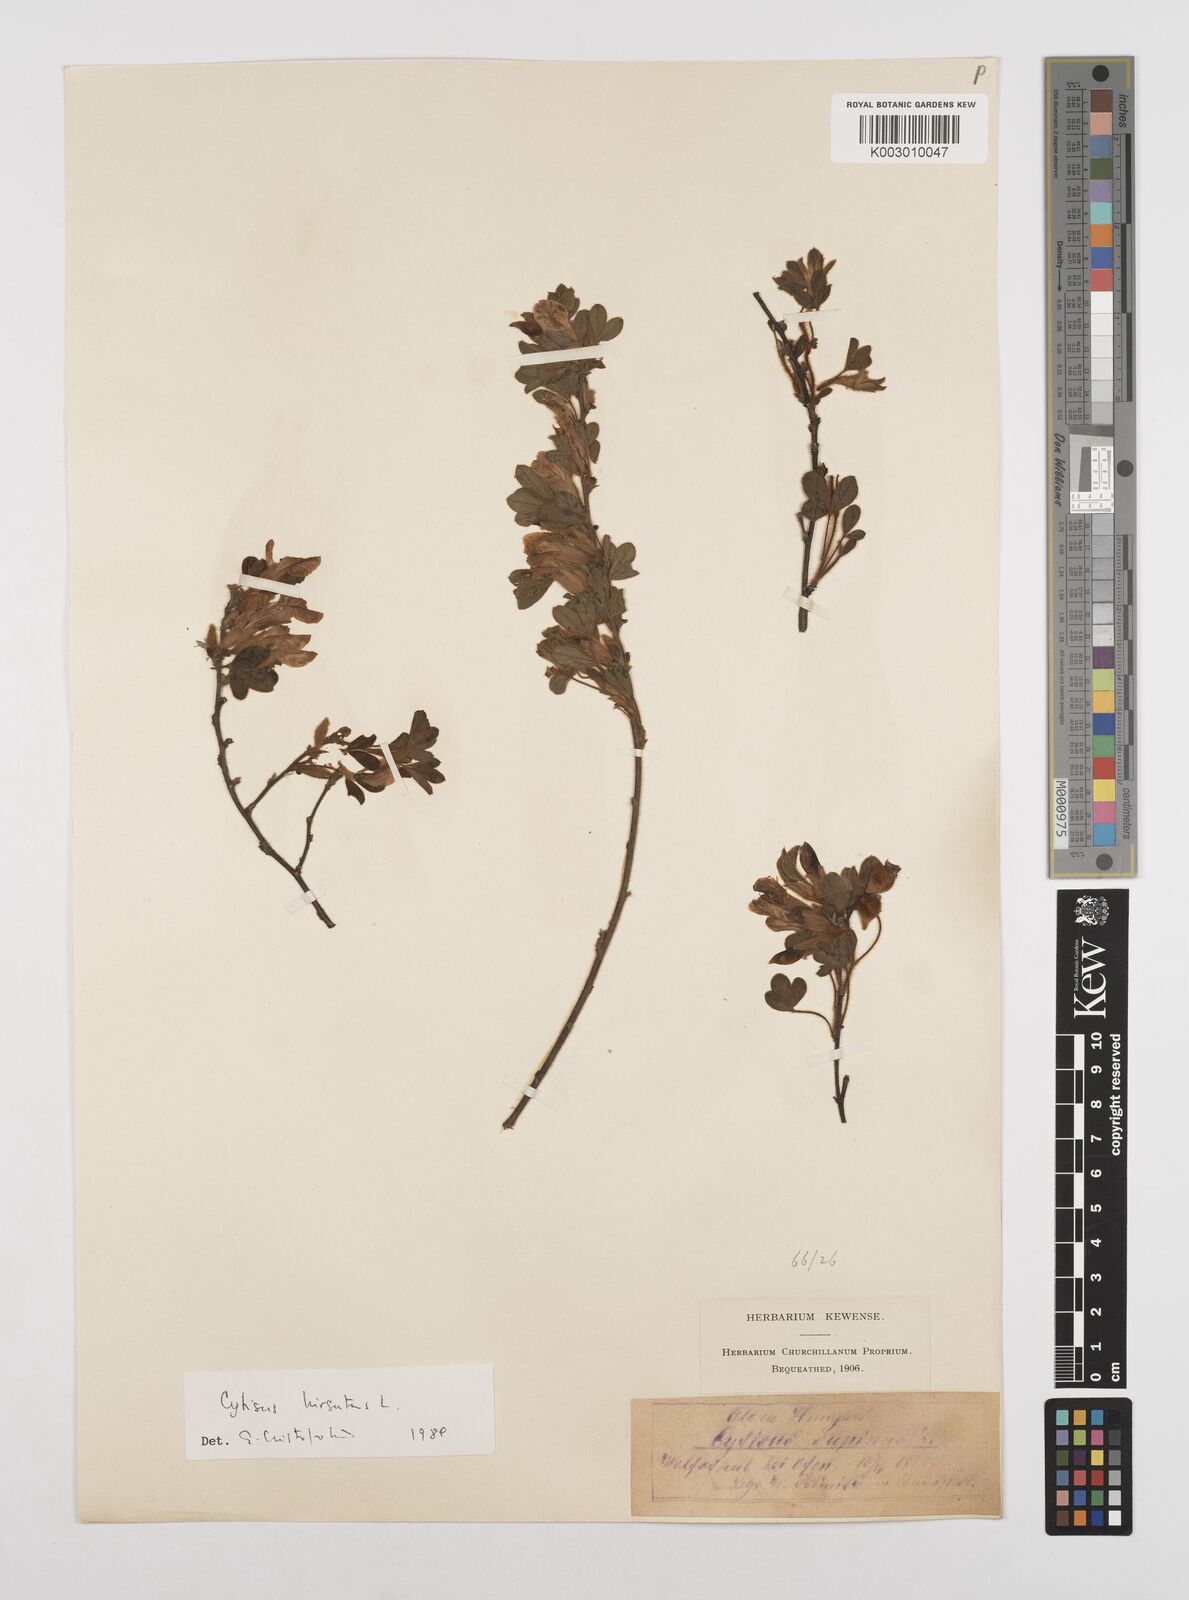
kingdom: Plantae
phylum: Tracheophyta
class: Magnoliopsida
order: Fabales
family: Fabaceae
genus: Chamaecytisus
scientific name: Chamaecytisus hirsutus
